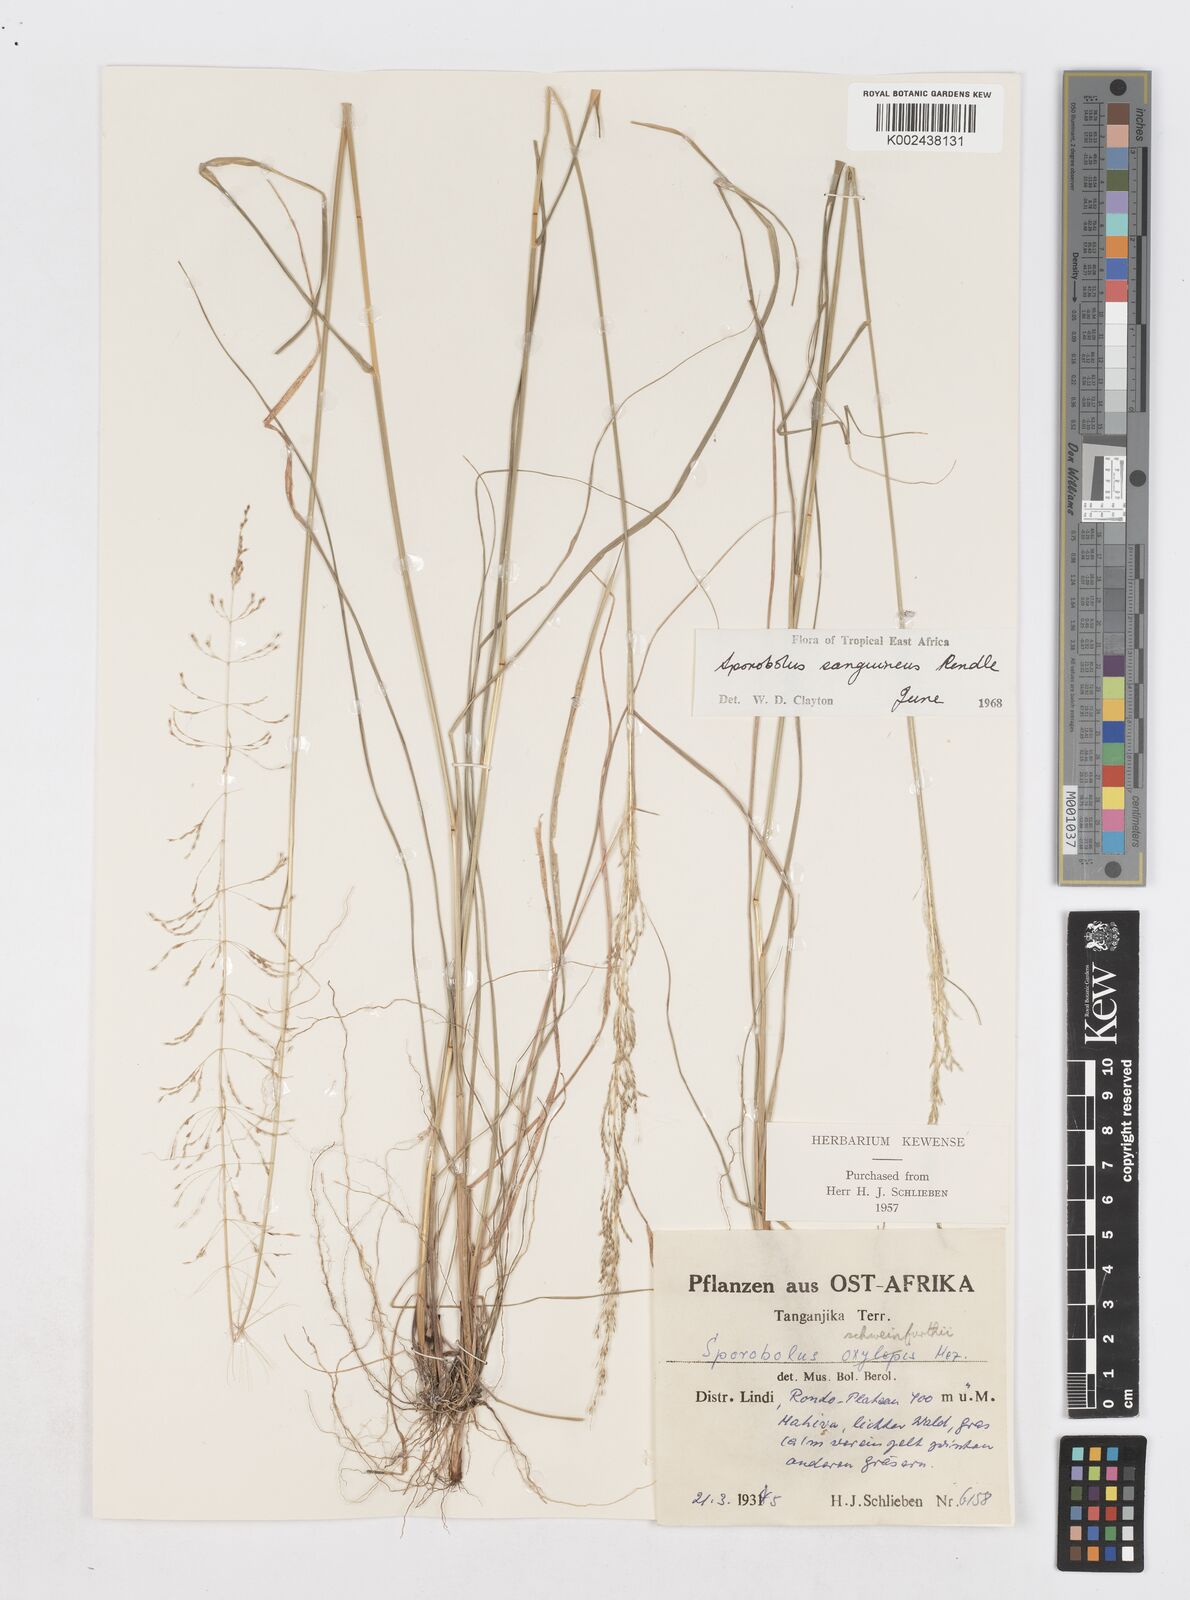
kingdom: Plantae
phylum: Tracheophyta
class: Liliopsida
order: Poales
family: Poaceae
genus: Sporobolus
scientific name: Sporobolus sanguineus
